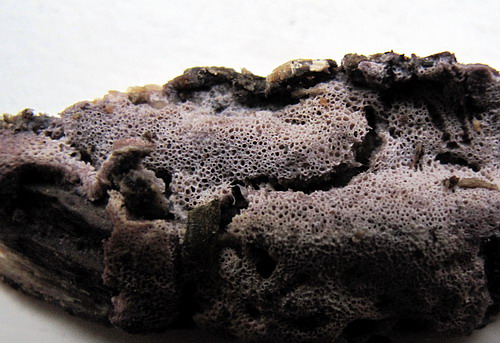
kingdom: Fungi
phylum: Basidiomycota
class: Agaricomycetes
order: Polyporales
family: Irpicaceae
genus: Ceriporia
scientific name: Ceriporia excelsa
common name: lilla voksporesvamp
